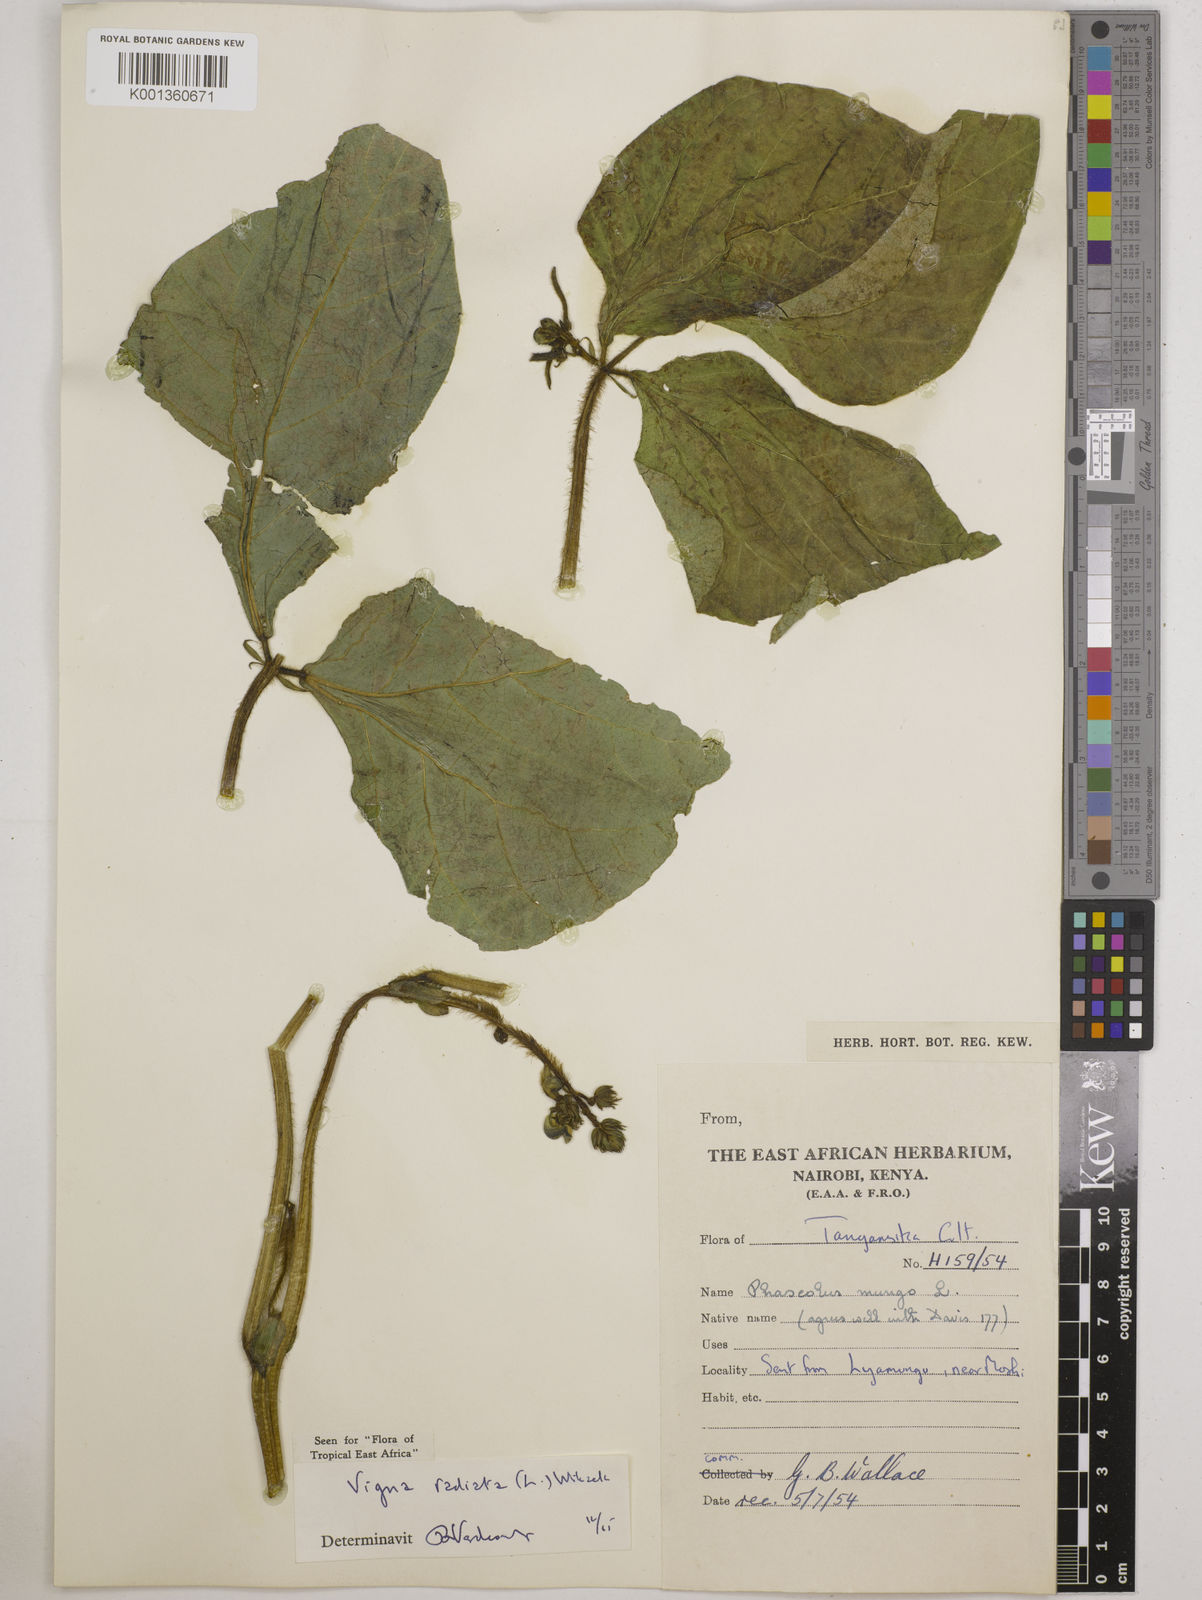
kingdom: Plantae
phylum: Tracheophyta
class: Magnoliopsida
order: Fabales
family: Fabaceae
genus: Vigna
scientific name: Vigna radiata
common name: Mung-bean
